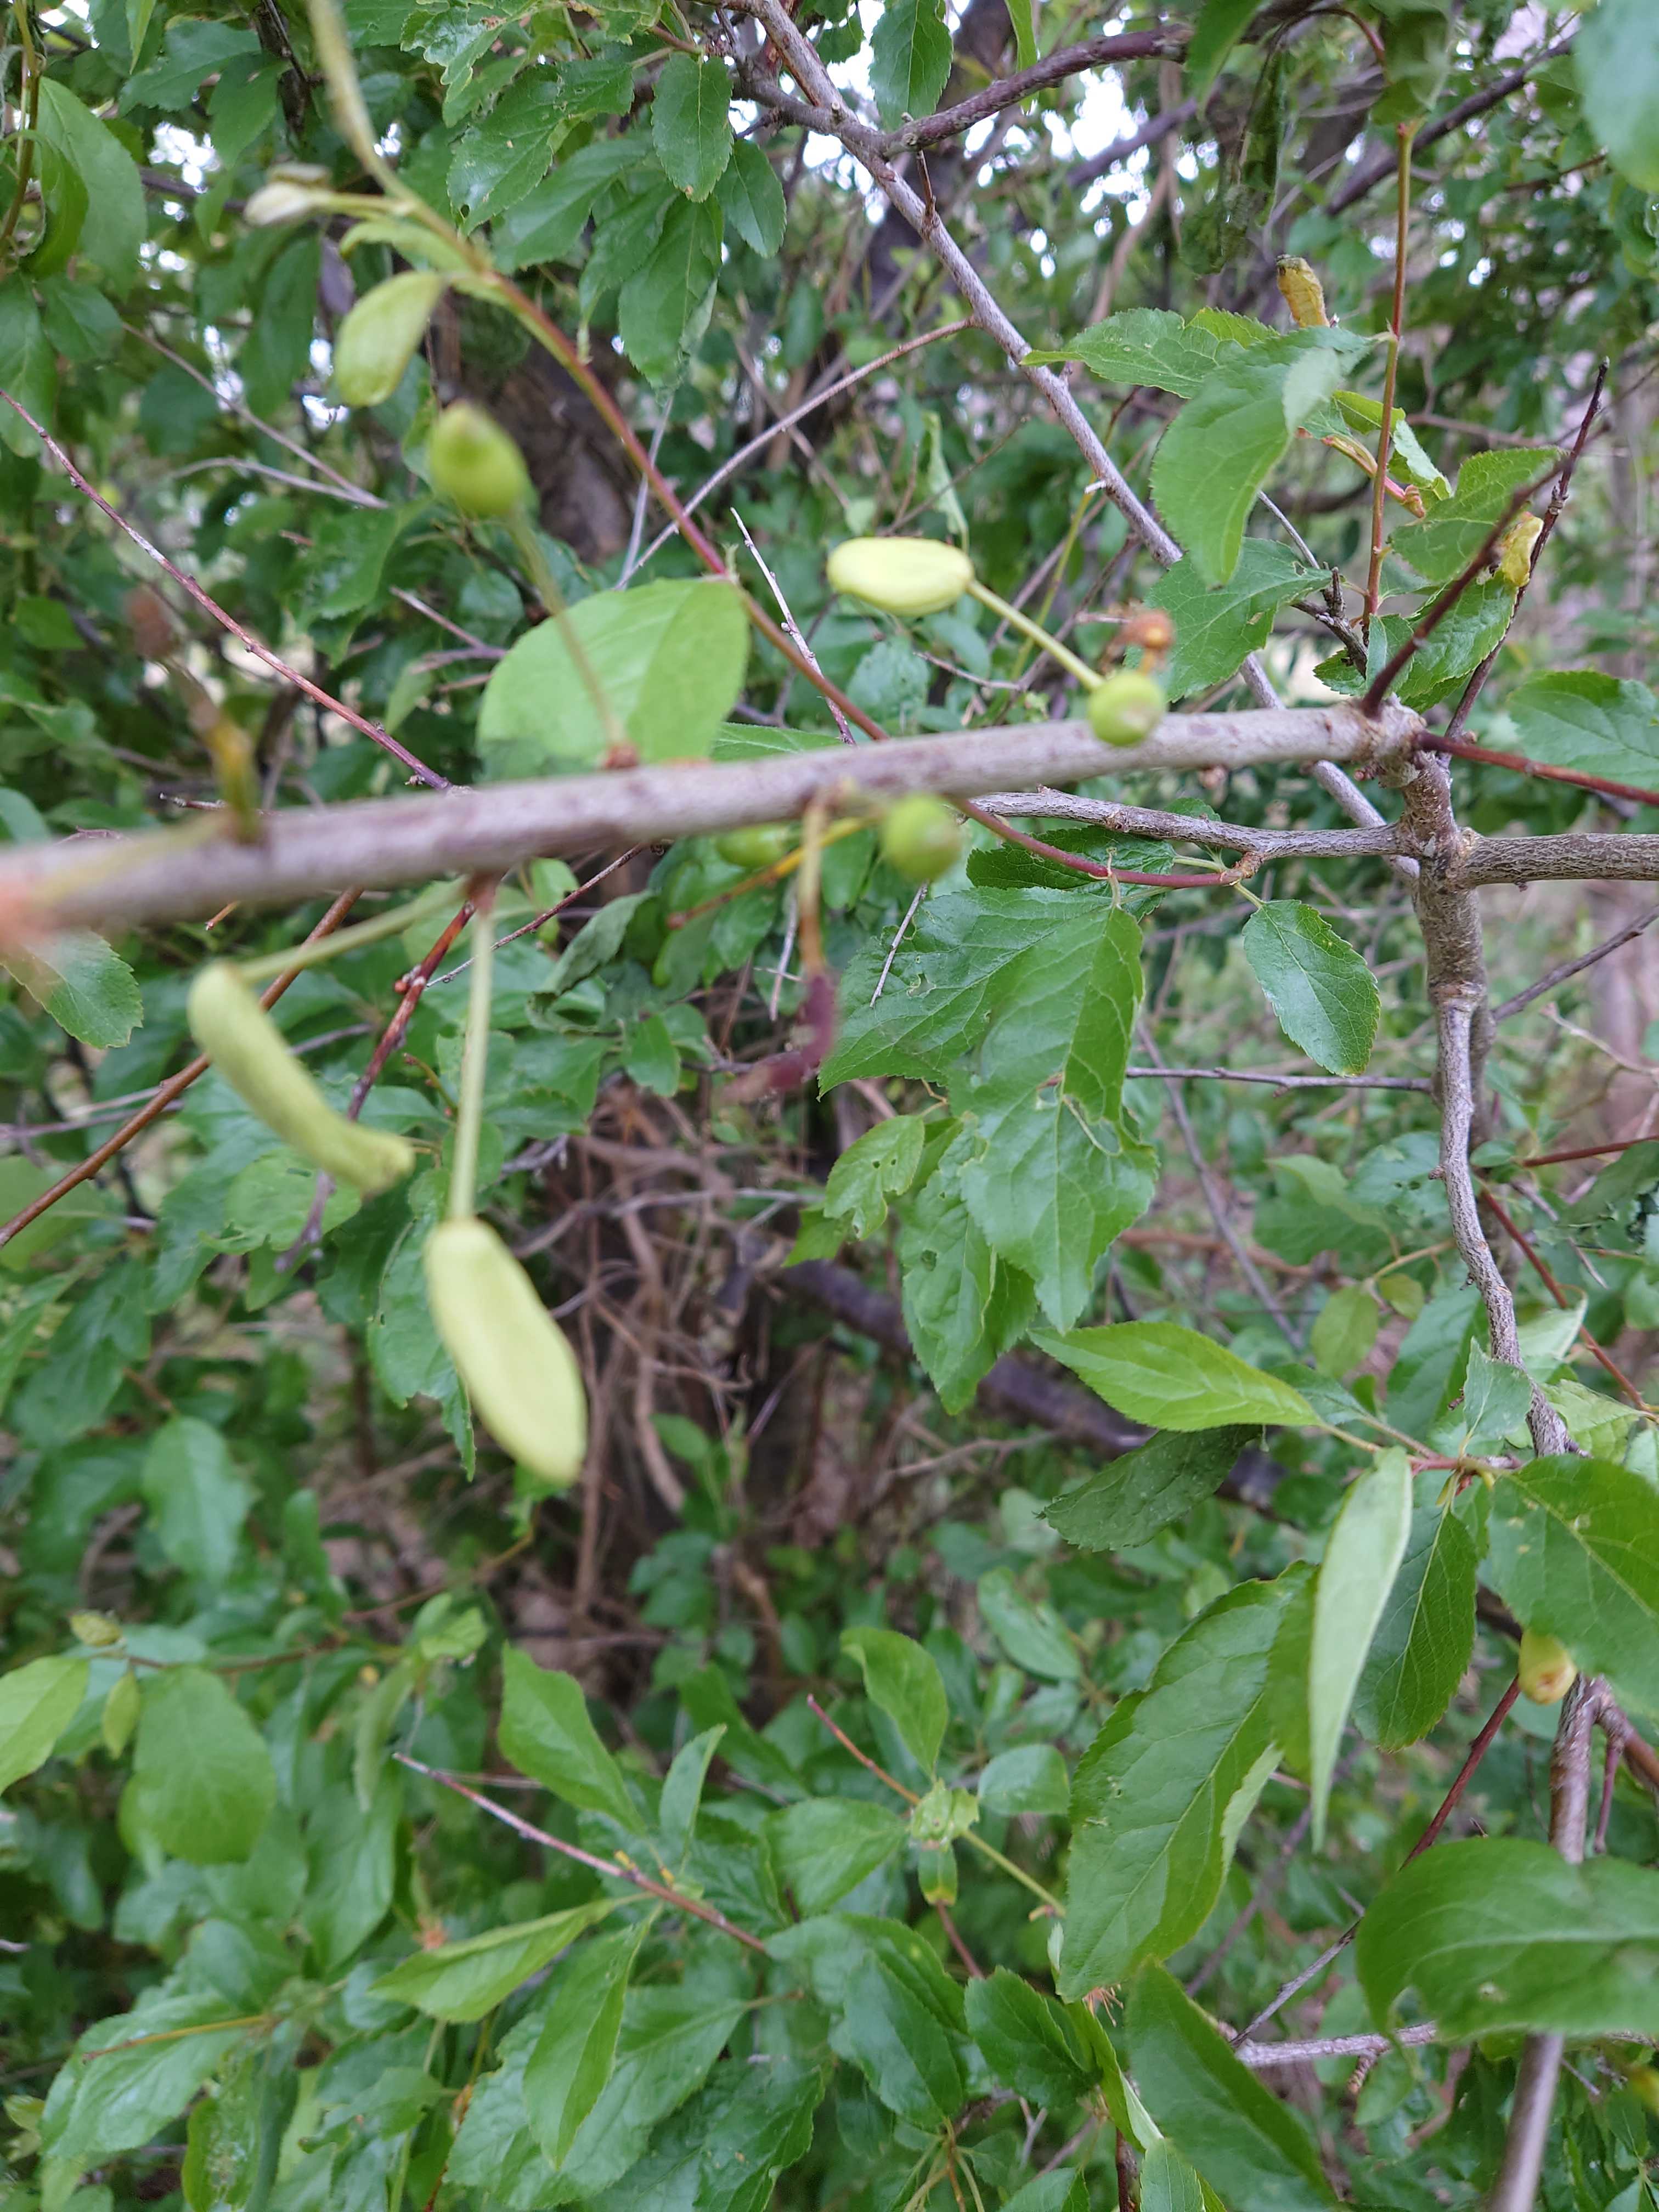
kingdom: Fungi
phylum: Ascomycota
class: Taphrinomycetes
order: Taphrinales
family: Taphrinaceae
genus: Taphrina
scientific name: Taphrina pruni
